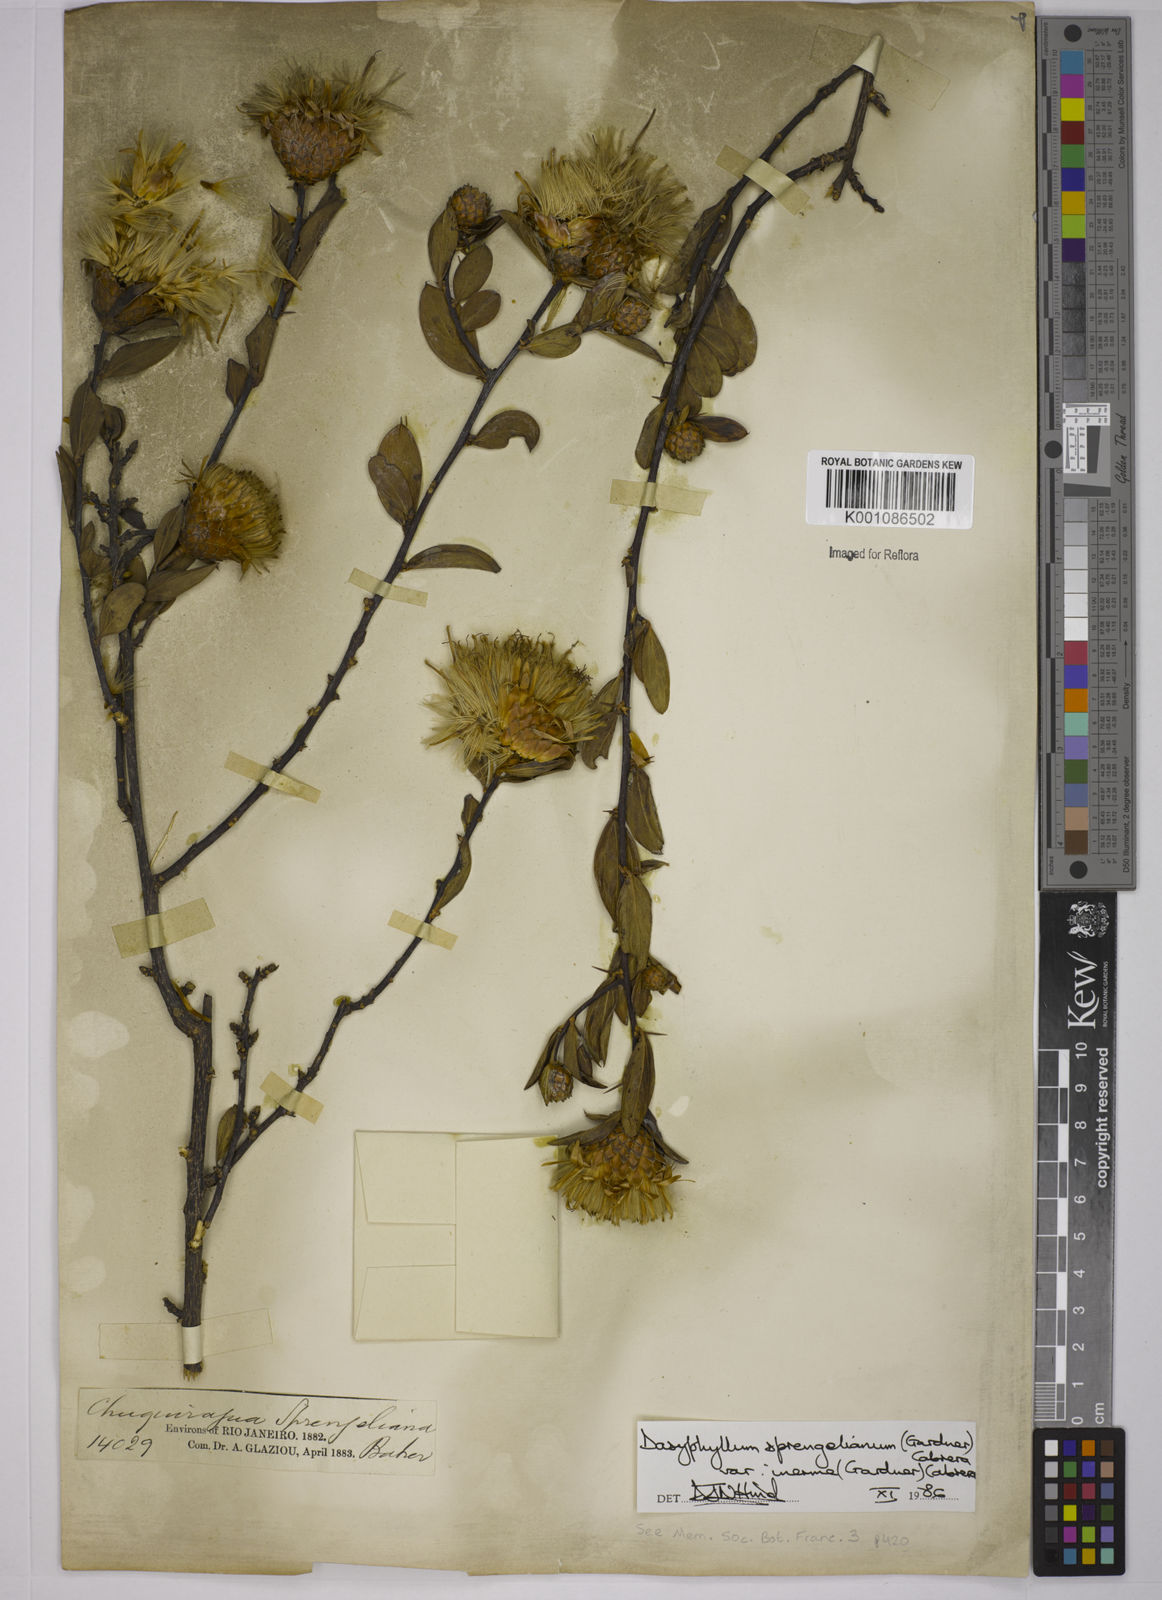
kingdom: Plantae
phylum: Tracheophyta
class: Magnoliopsida
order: Asterales
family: Asteraceae
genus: Dasyphyllum
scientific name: Dasyphyllum sprengelianum
